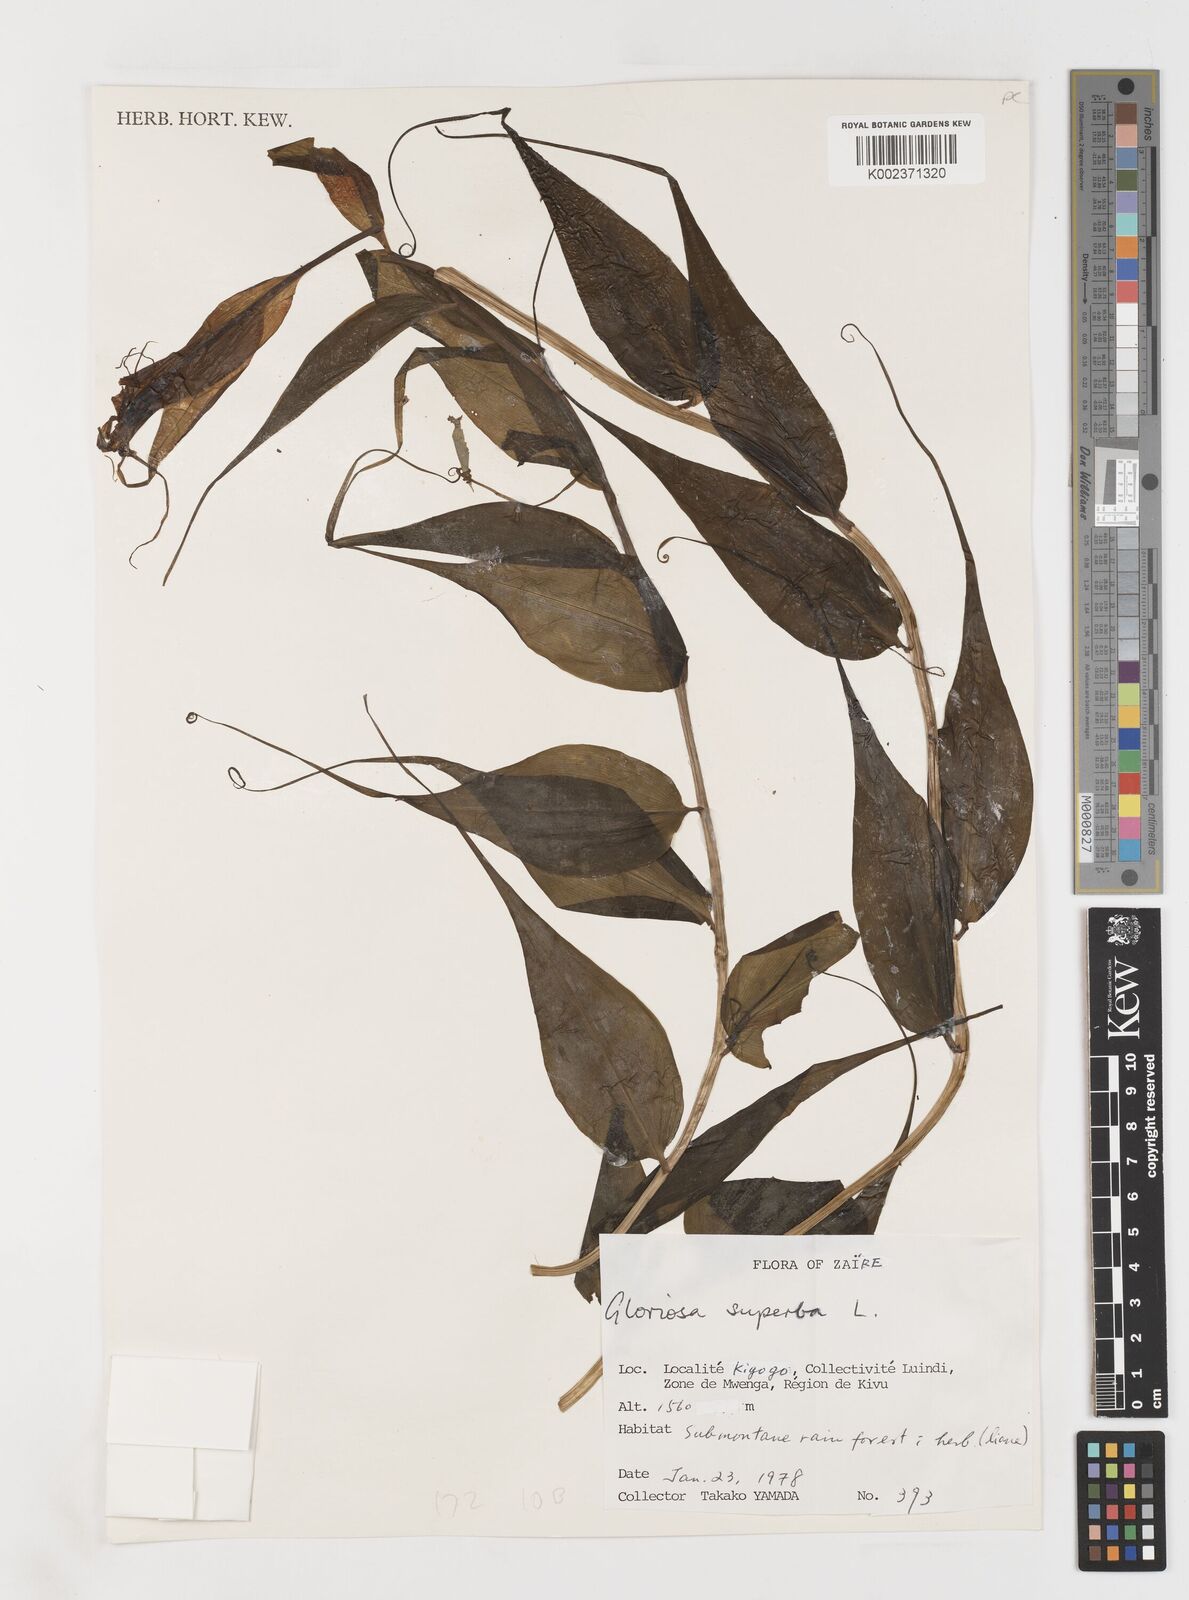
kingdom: Plantae
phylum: Tracheophyta
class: Liliopsida
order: Liliales
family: Colchicaceae
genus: Gloriosa
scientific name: Gloriosa simplex
